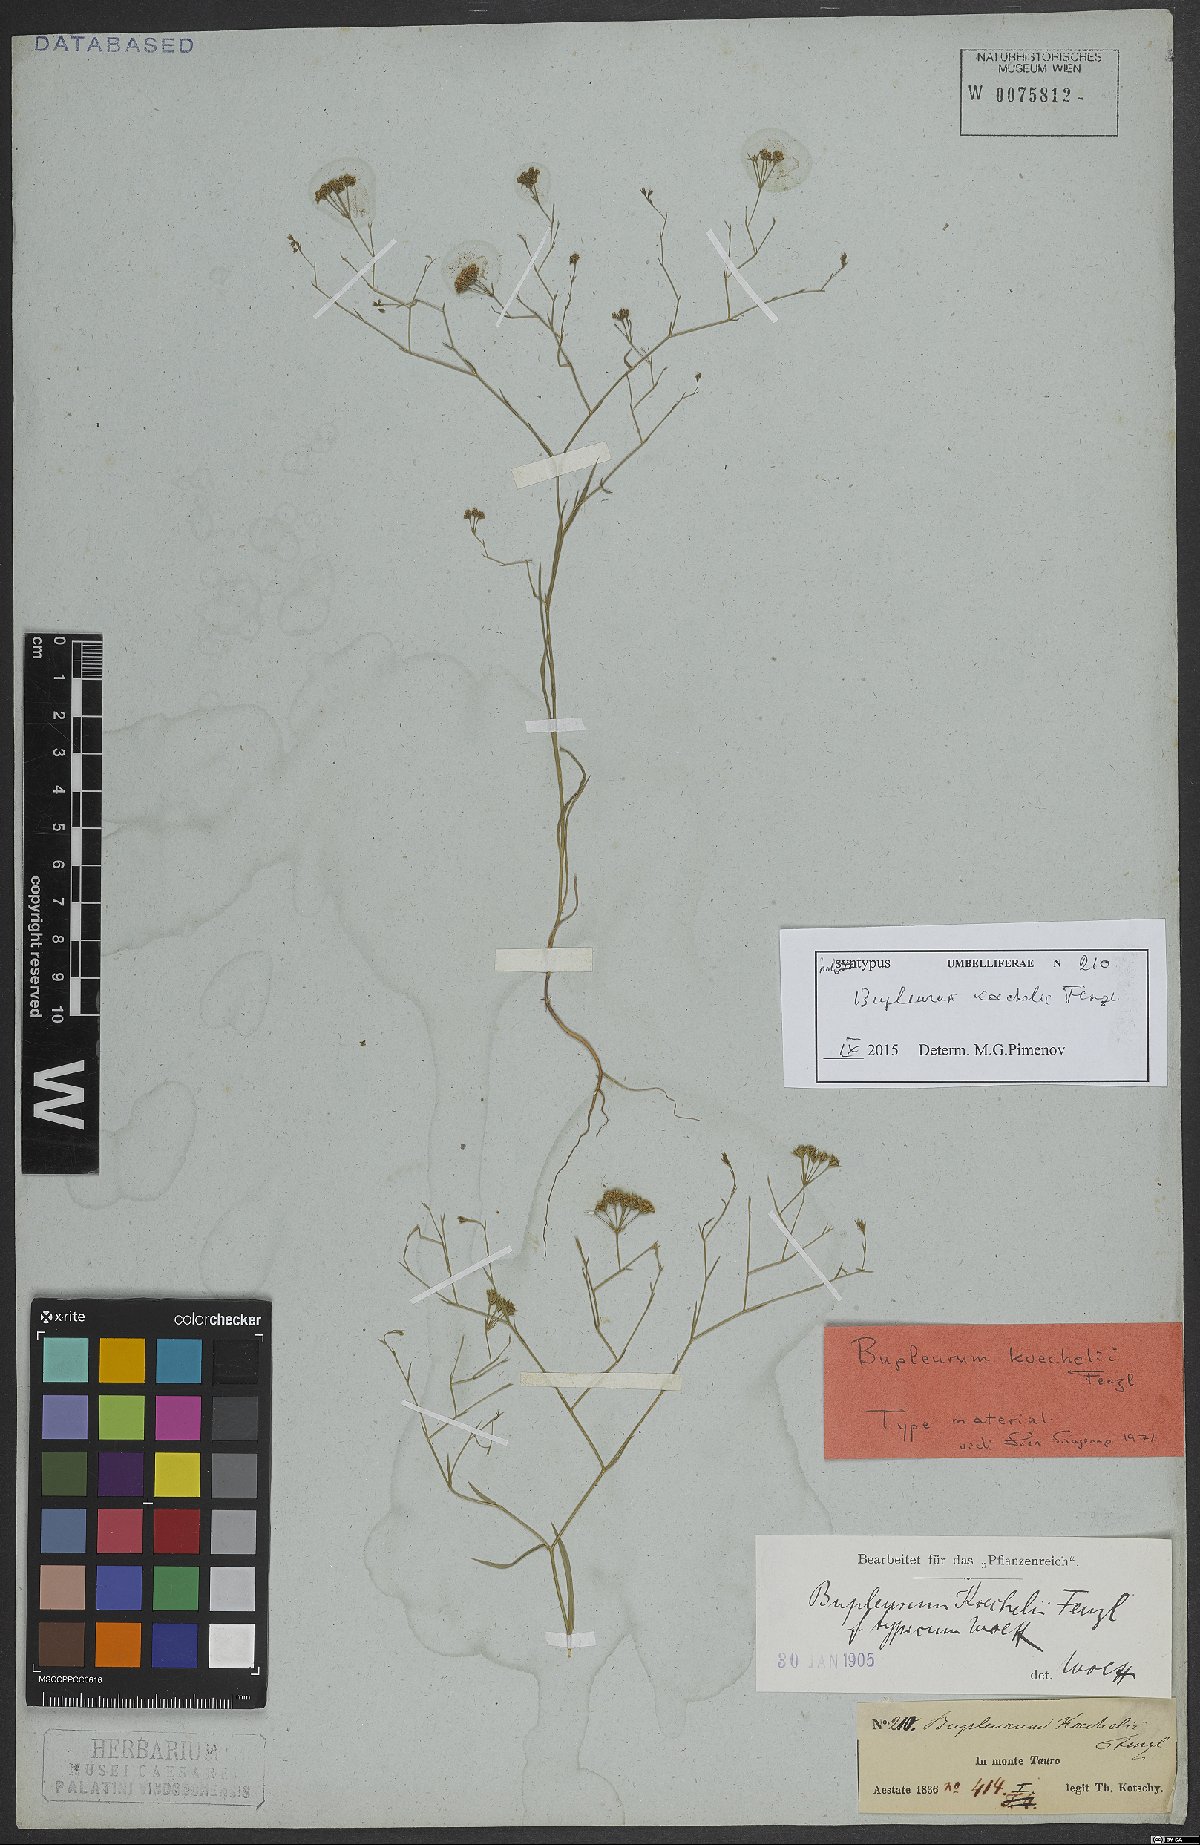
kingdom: Plantae
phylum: Tracheophyta
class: Magnoliopsida
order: Apiales
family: Apiaceae
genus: Bupleurum
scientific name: Bupleurum koechelii
